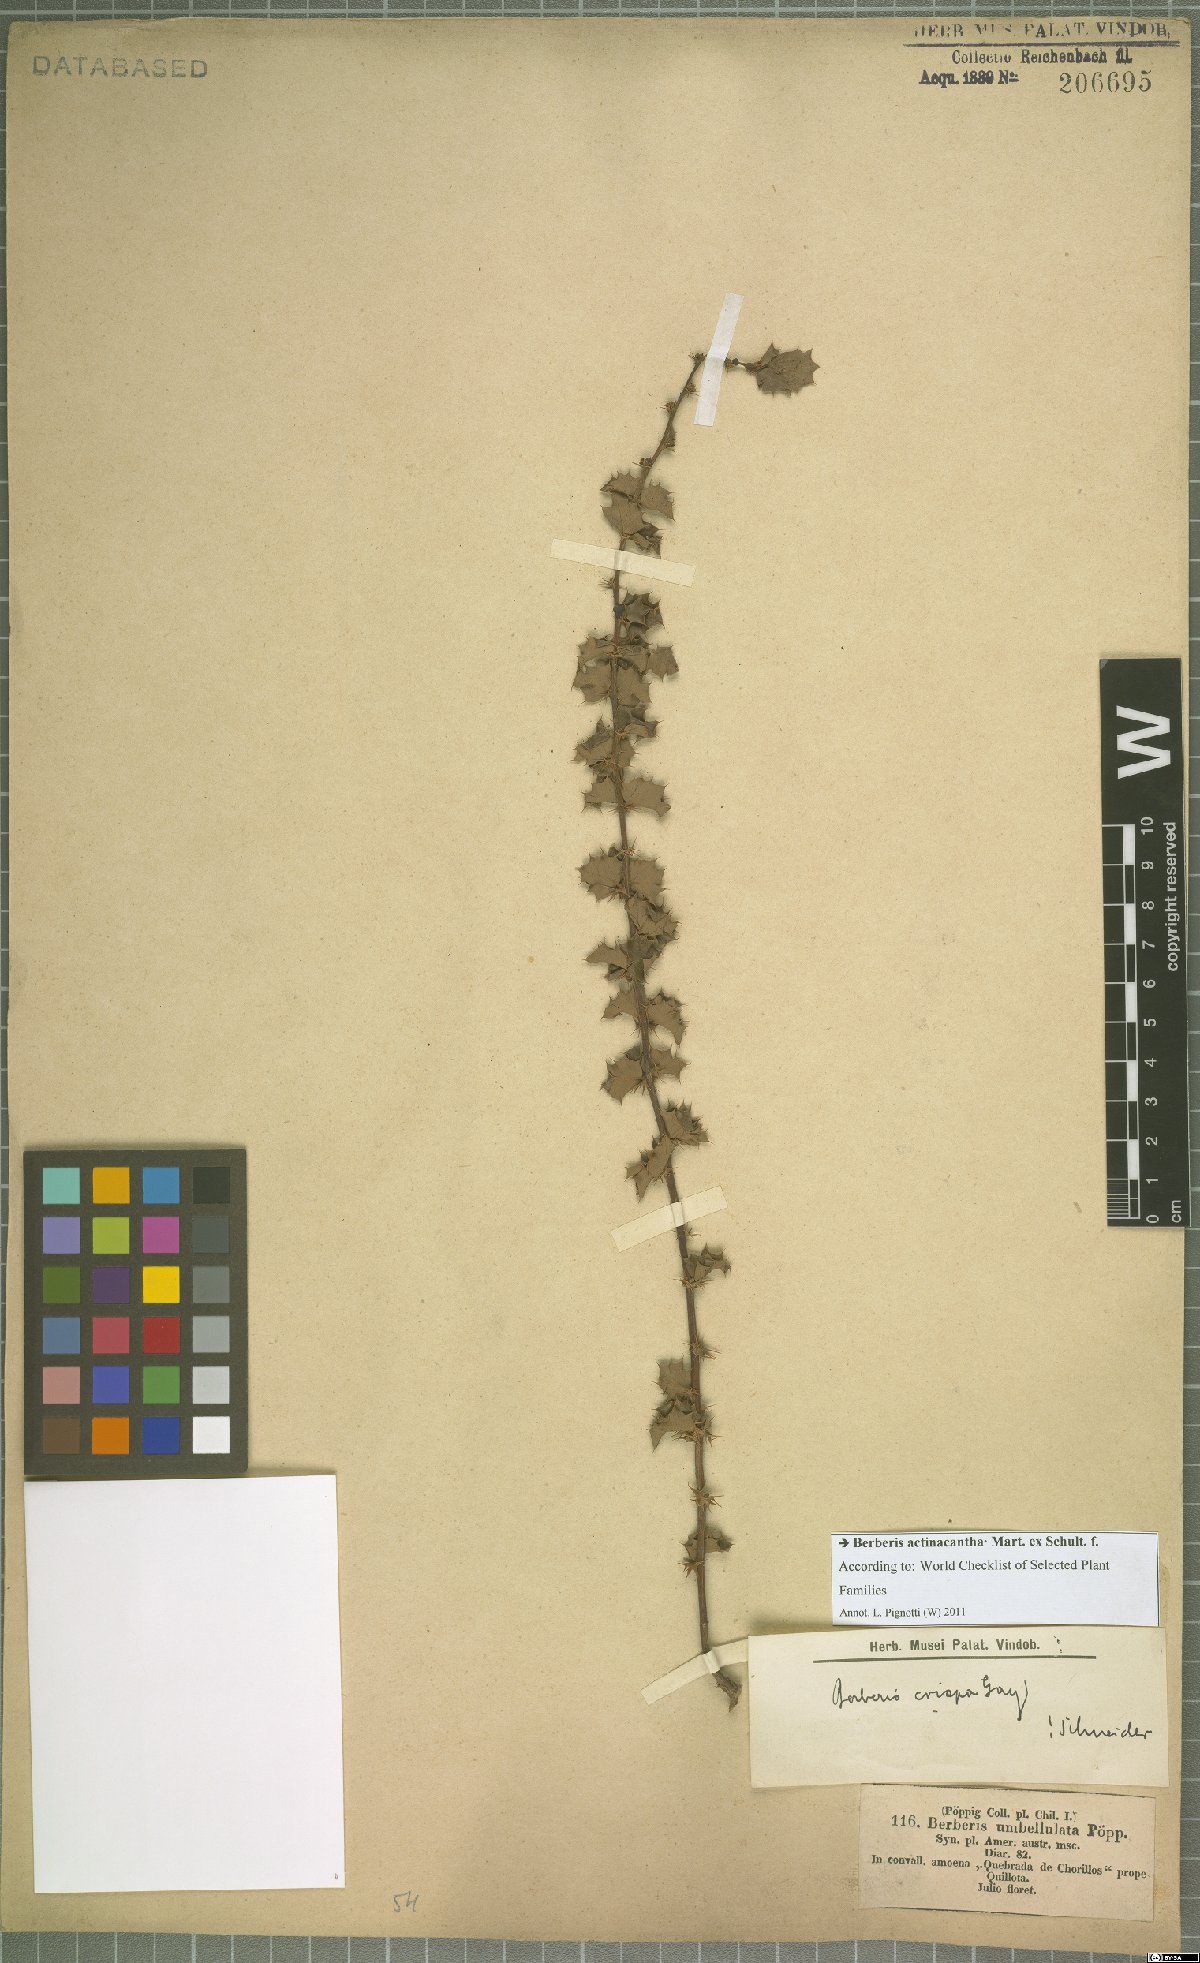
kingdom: Plantae
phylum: Tracheophyta
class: Magnoliopsida
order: Ranunculales
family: Berberidaceae
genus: Berberis
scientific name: Berberis actinacantha
